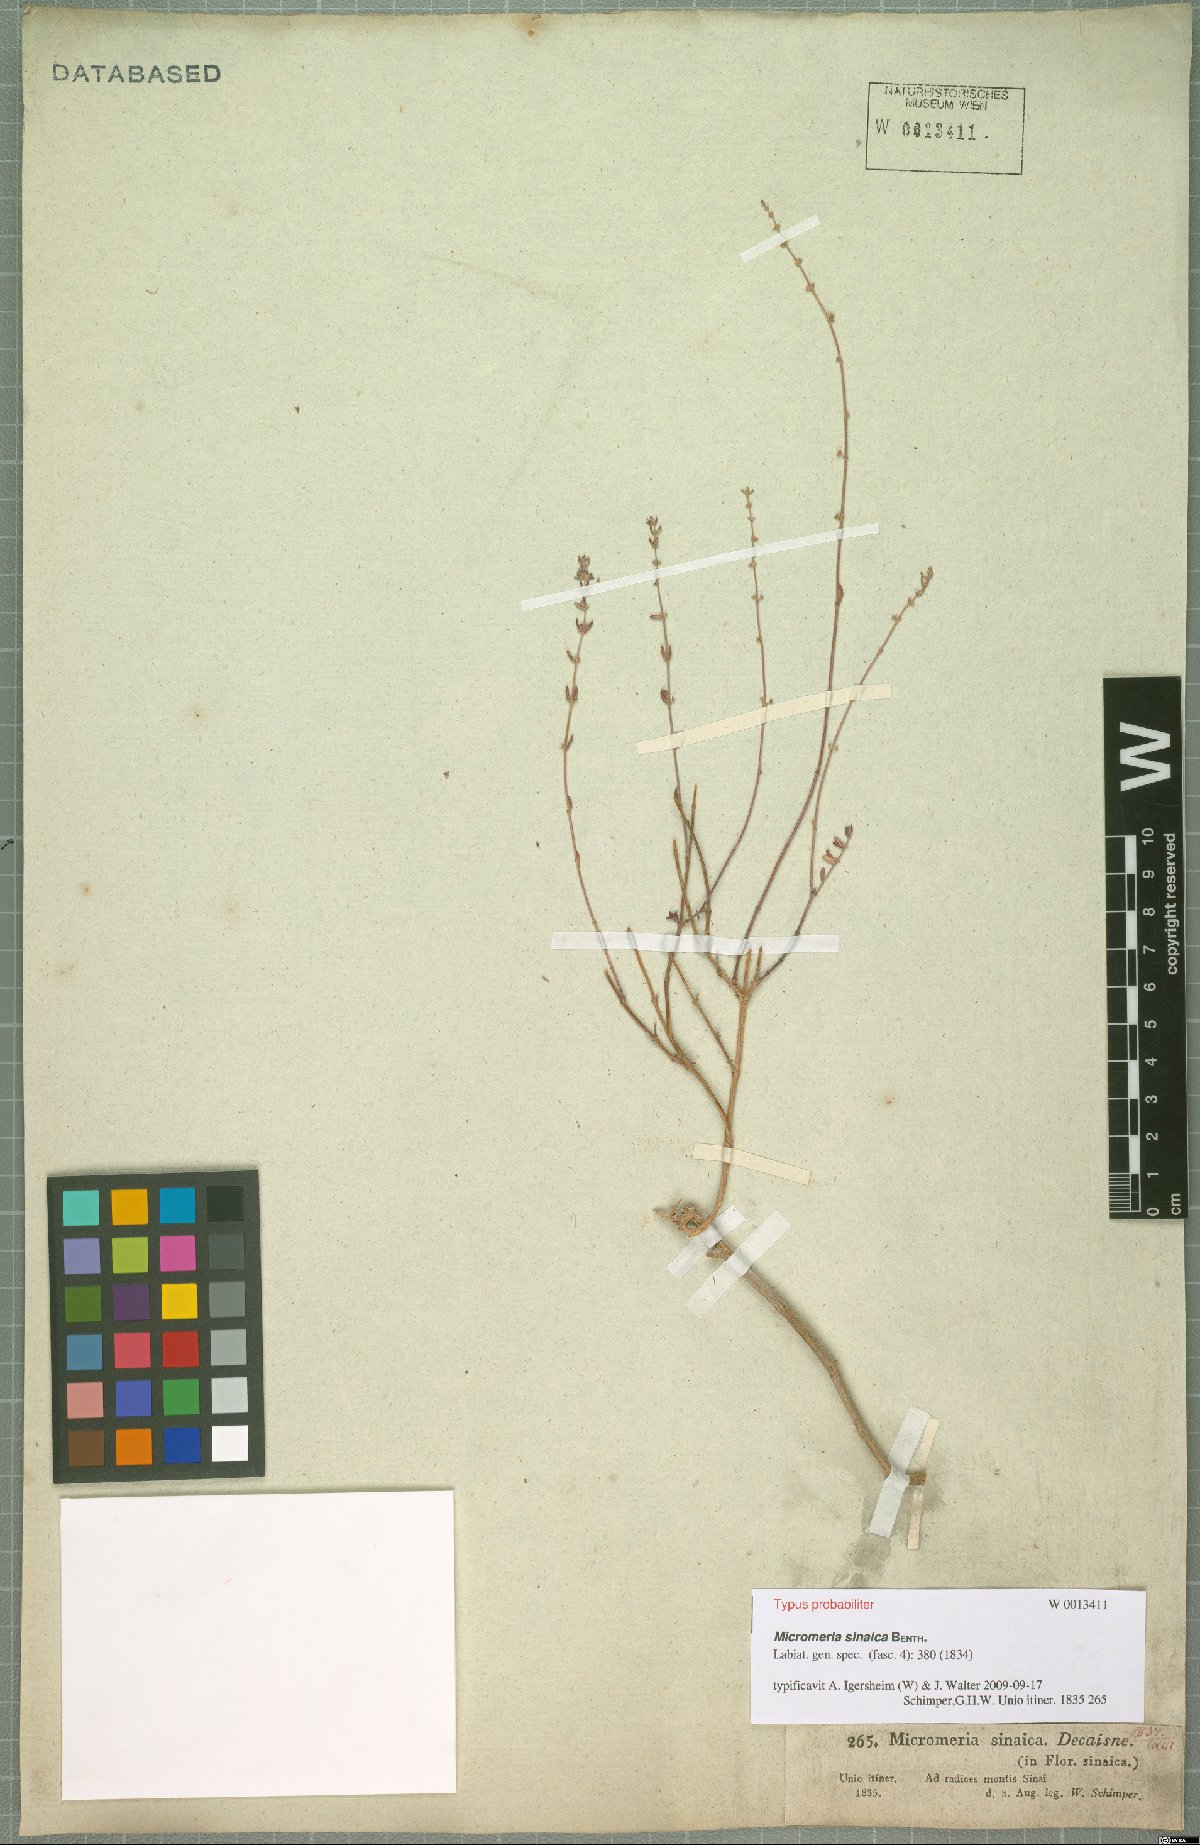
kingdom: Plantae
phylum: Tracheophyta
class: Magnoliopsida
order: Lamiales
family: Lamiaceae
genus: Micromeria
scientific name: Micromeria sinaica
